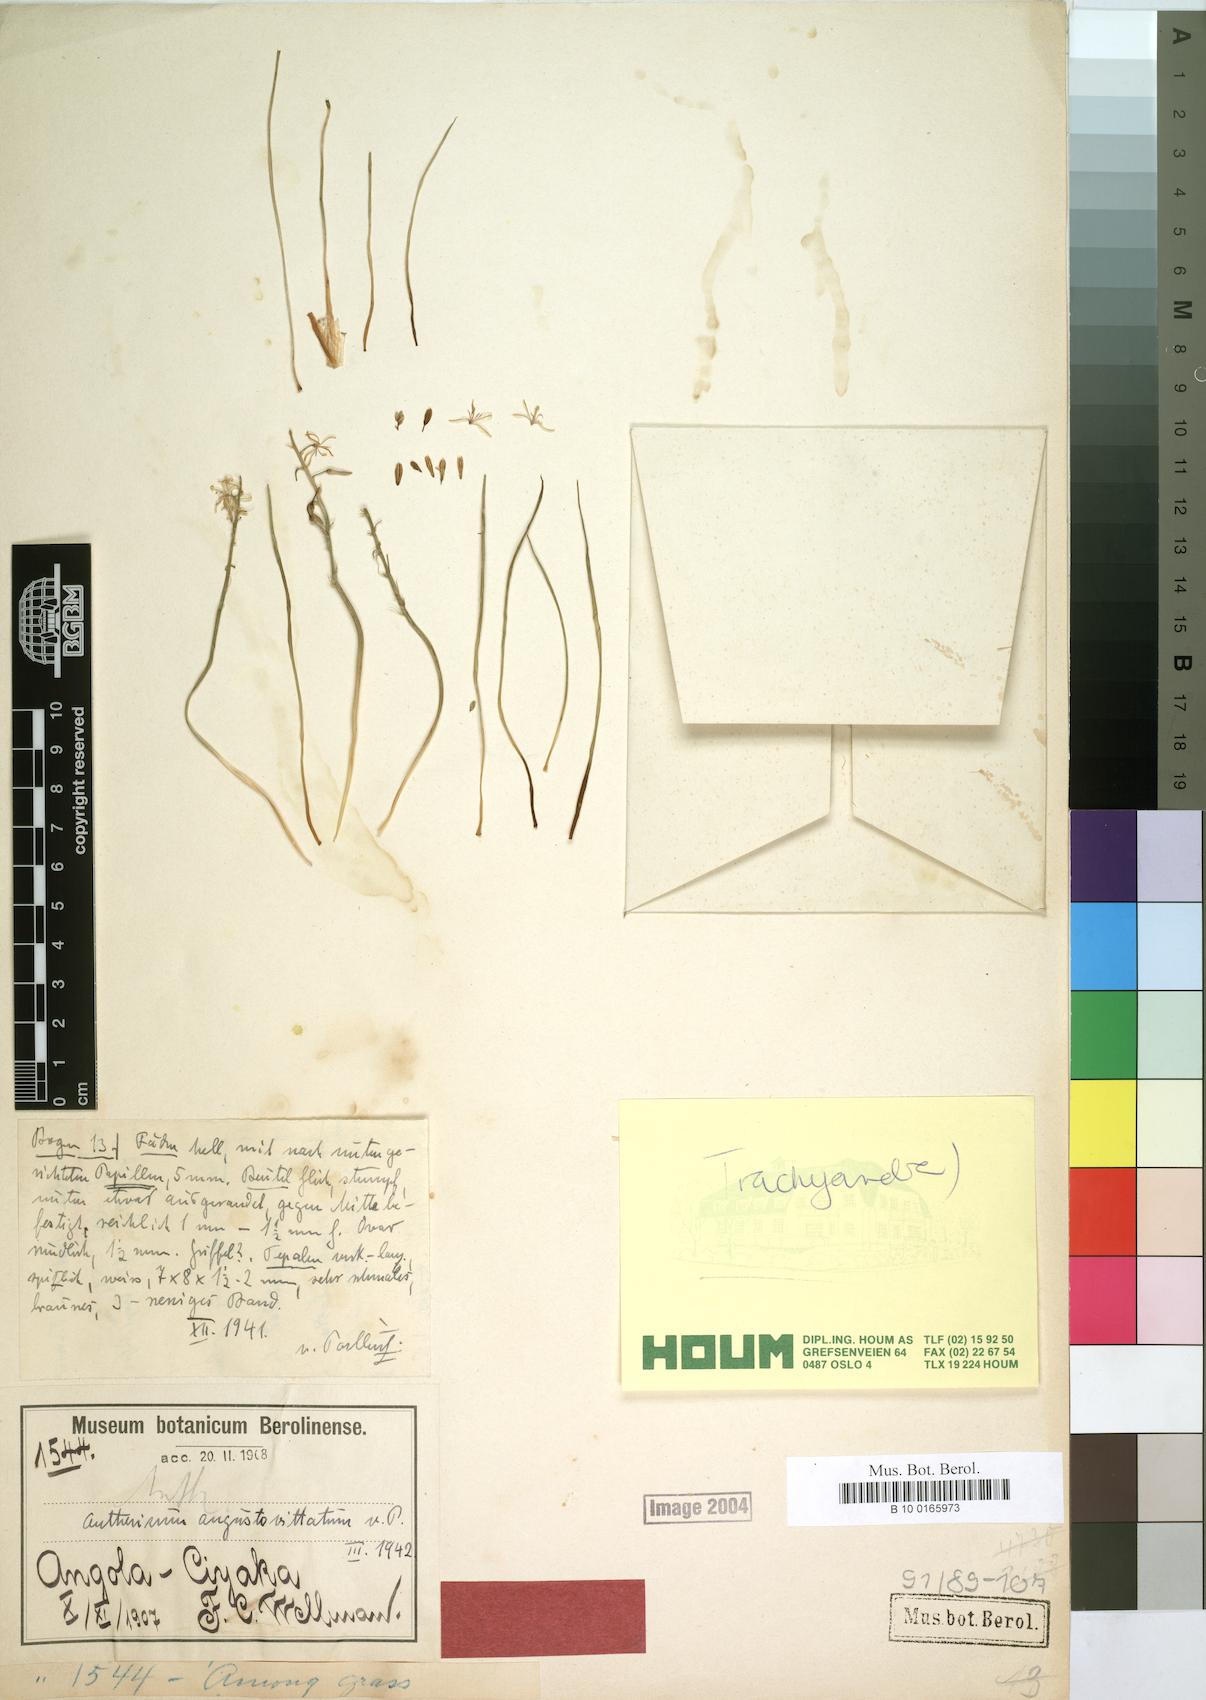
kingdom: Plantae
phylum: Tracheophyta
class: Liliopsida
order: Asparagales
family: Asparagaceae
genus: Anthericum
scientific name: Anthericum angustovittatum
